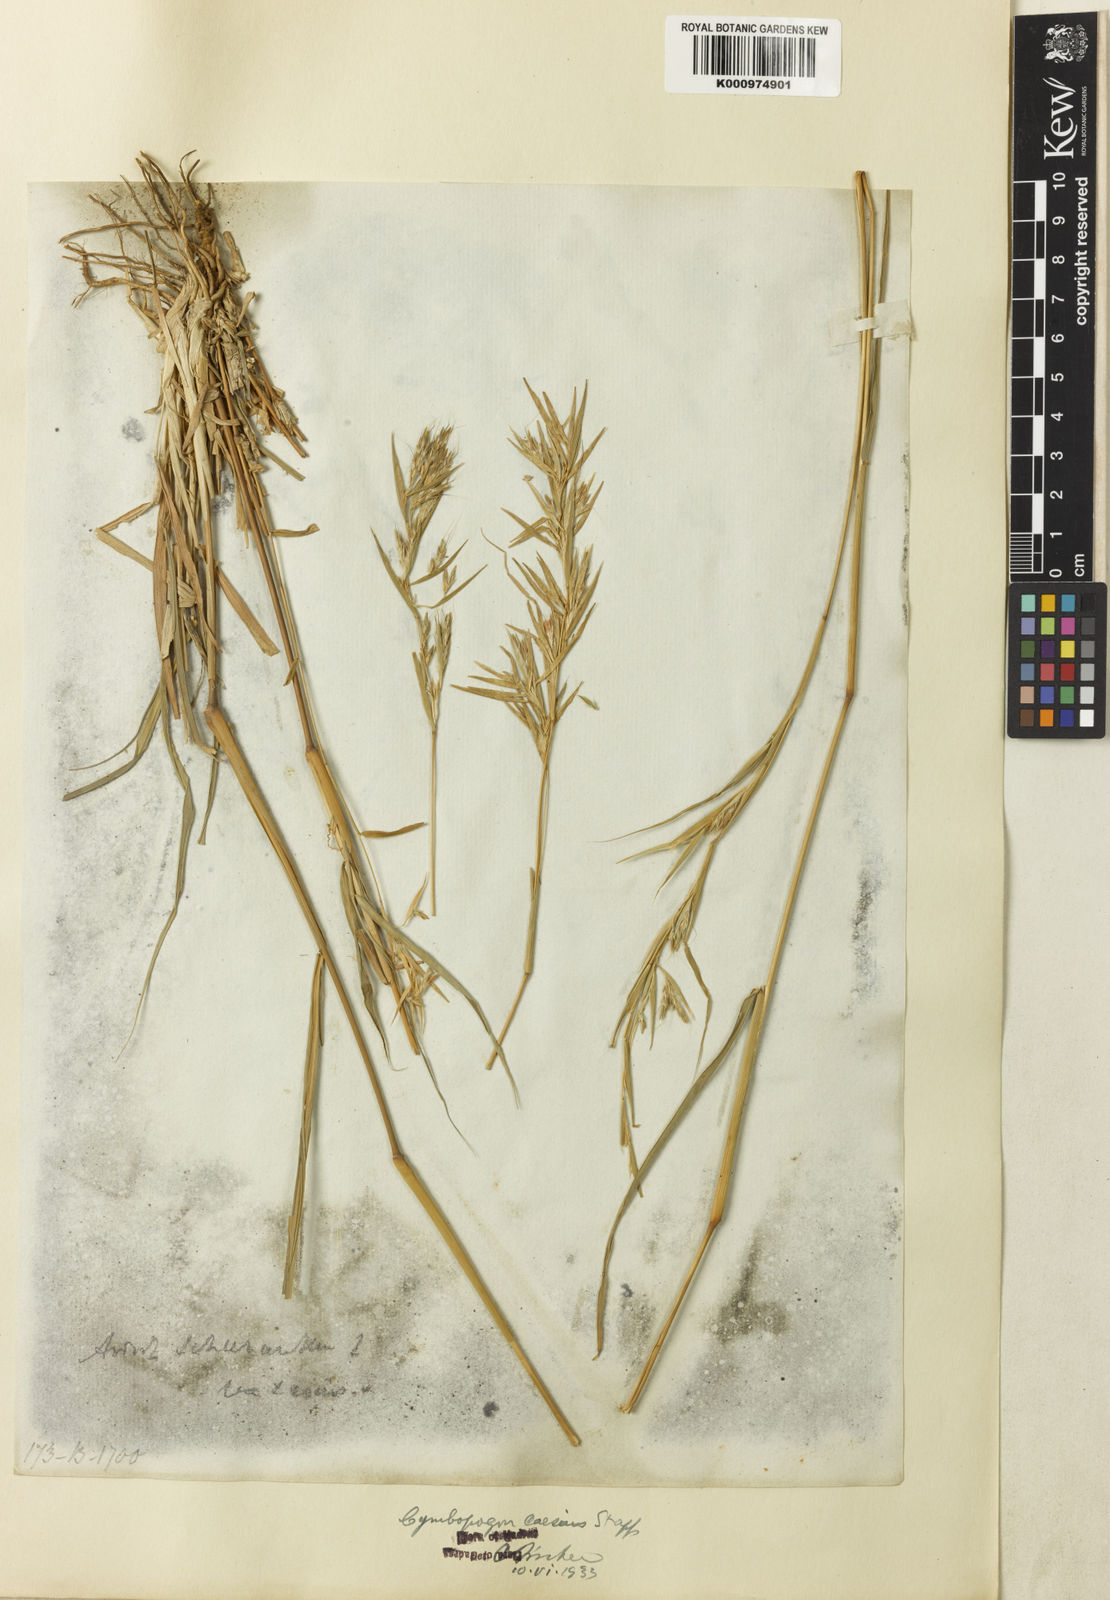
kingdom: Plantae
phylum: Tracheophyta
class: Liliopsida
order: Poales
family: Poaceae
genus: Cymbopogon
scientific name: Cymbopogon caesius
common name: Kachi grass
